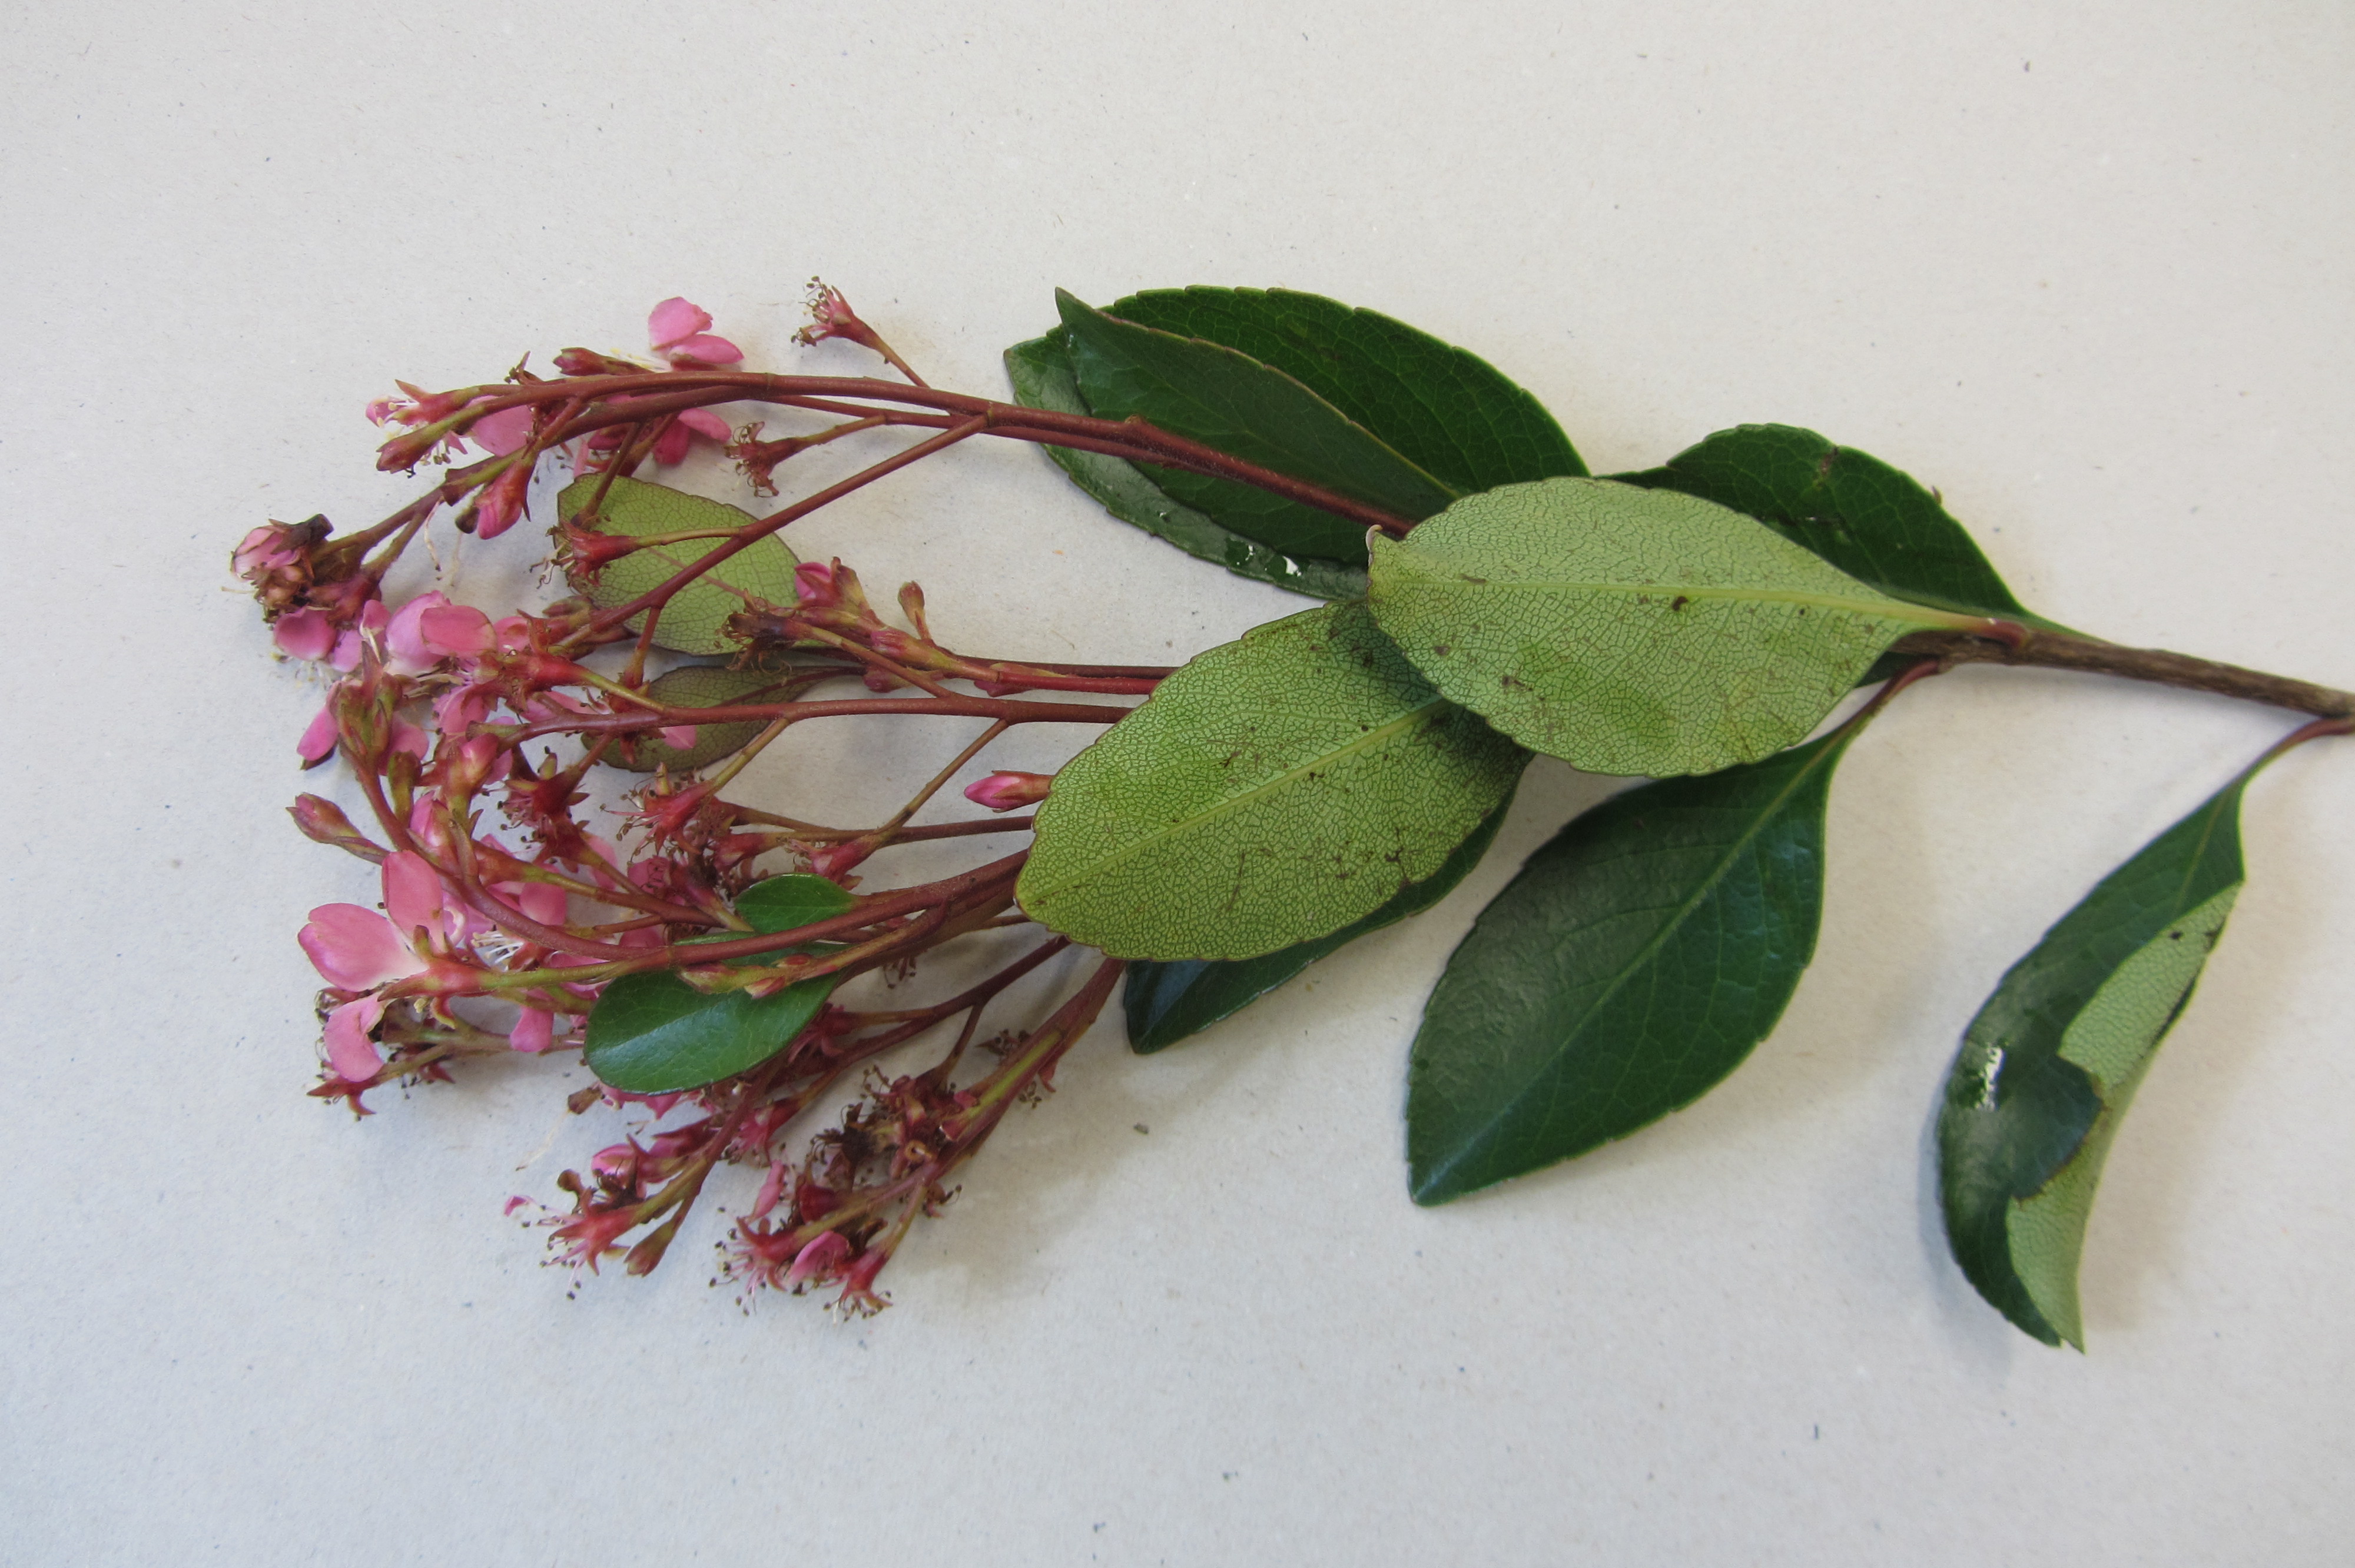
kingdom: Plantae
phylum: Tracheophyta
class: Magnoliopsida
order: Rosales
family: Rosaceae
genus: Rhaphiolepis
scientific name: Rhaphiolepis delacourii
